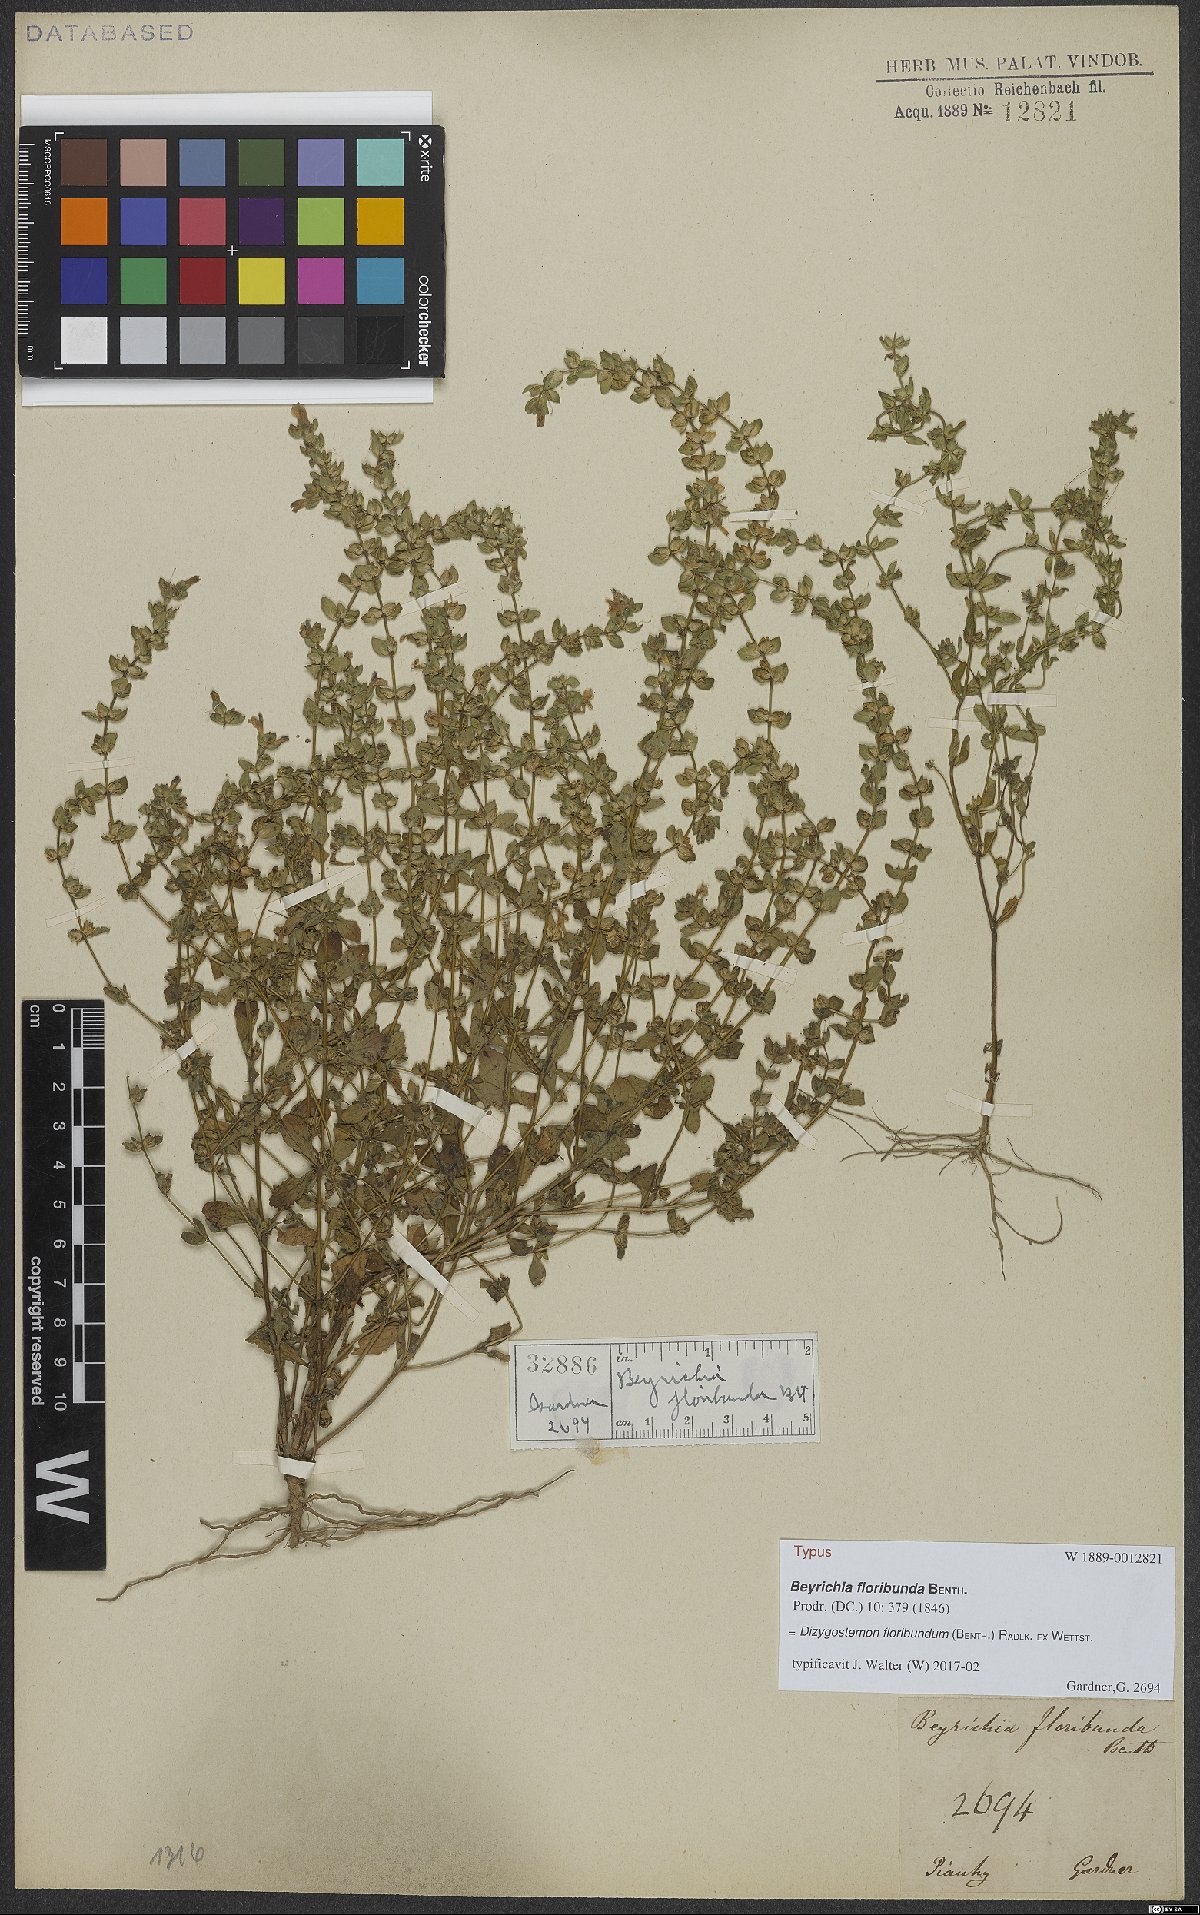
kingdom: Plantae
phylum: Tracheophyta
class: Magnoliopsida
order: Lamiales
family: Plantaginaceae
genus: Dizygostemon
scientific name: Dizygostemon floribundum
